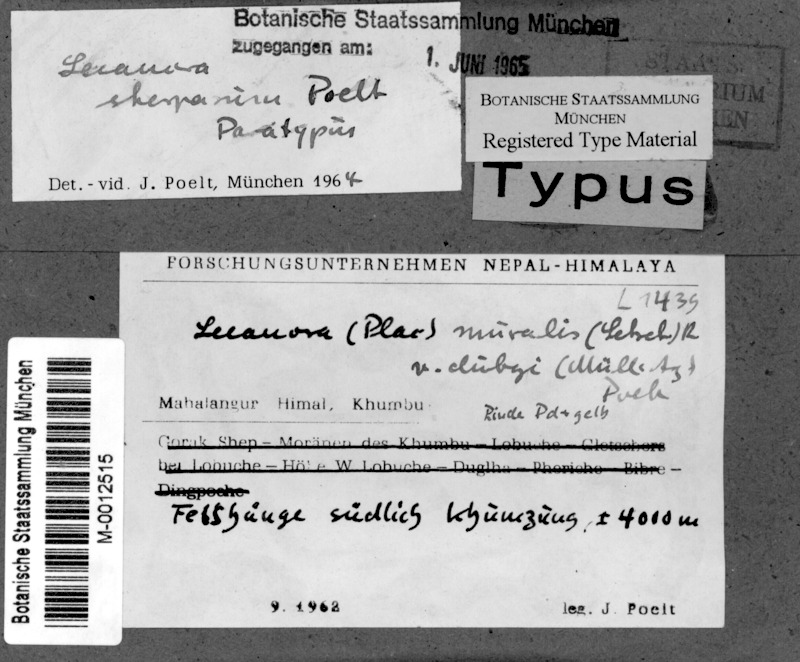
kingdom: Fungi
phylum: Ascomycota
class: Lecanoromycetes
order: Lecanorales
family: Lecanoraceae
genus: Lecanora
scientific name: Lecanora sherparum
